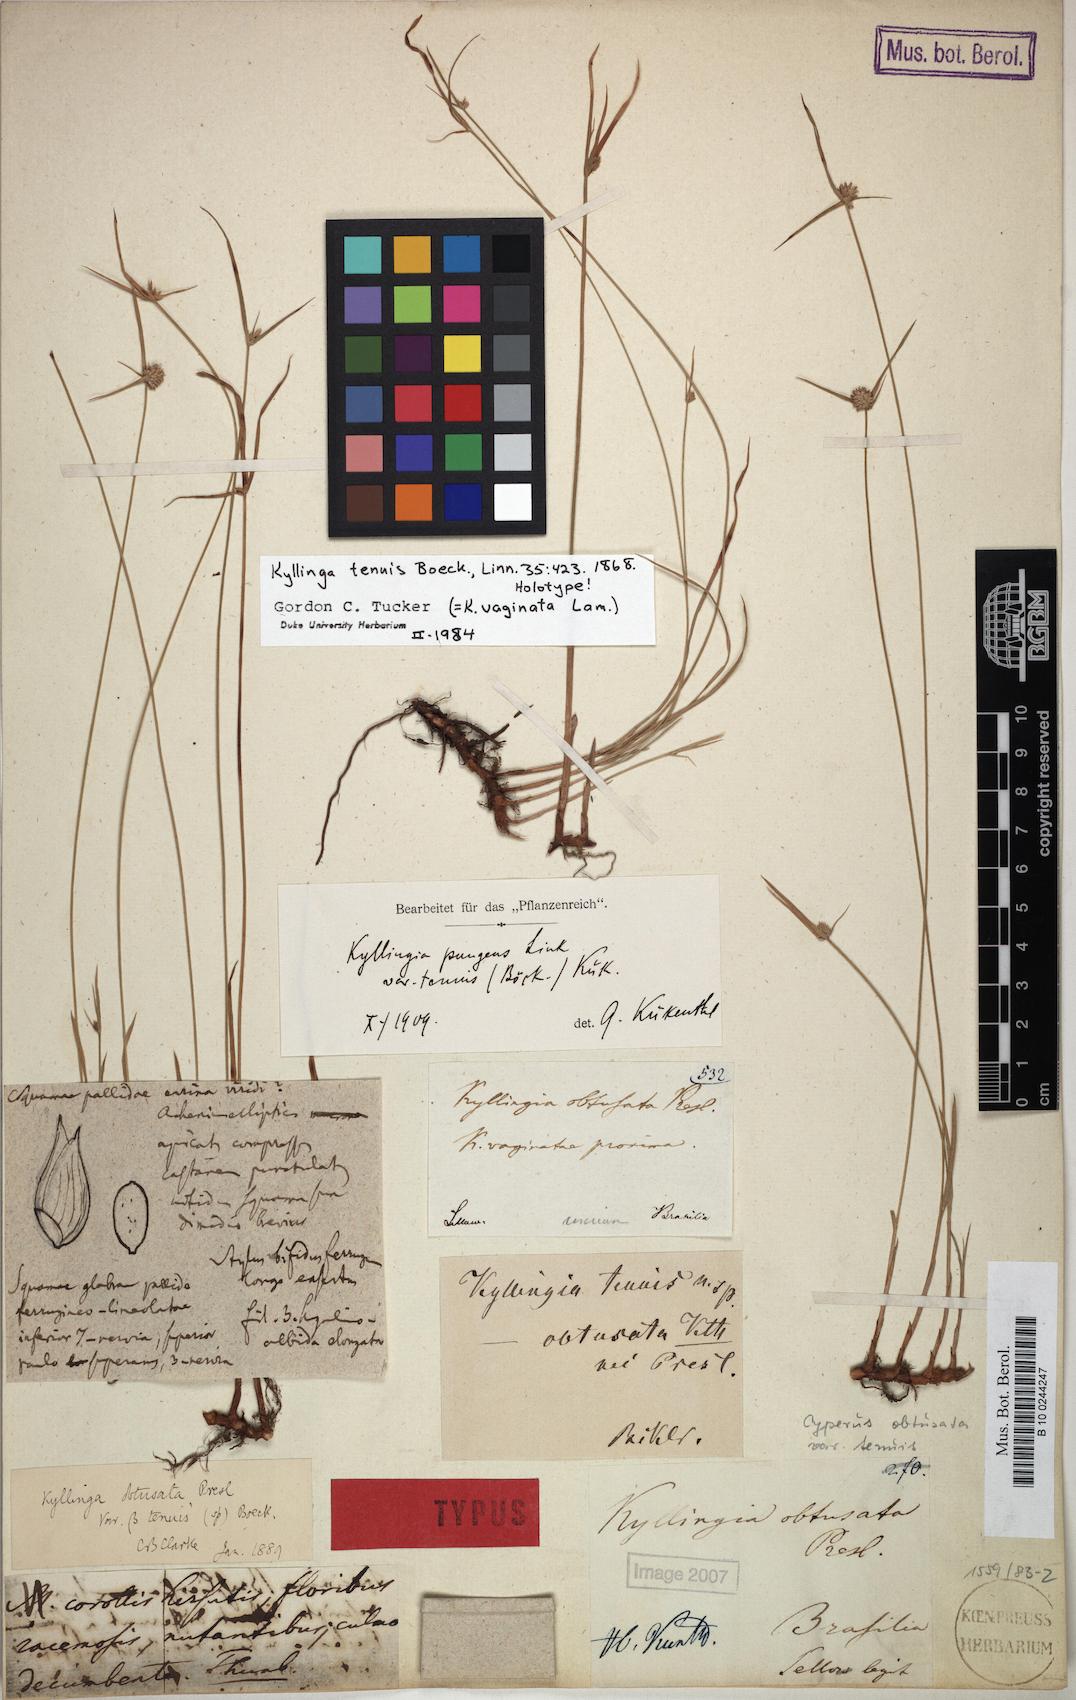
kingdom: Plantae
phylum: Tracheophyta
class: Liliopsida
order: Poales
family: Cyperaceae
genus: Cyperus
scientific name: Cyperus obtusatus
